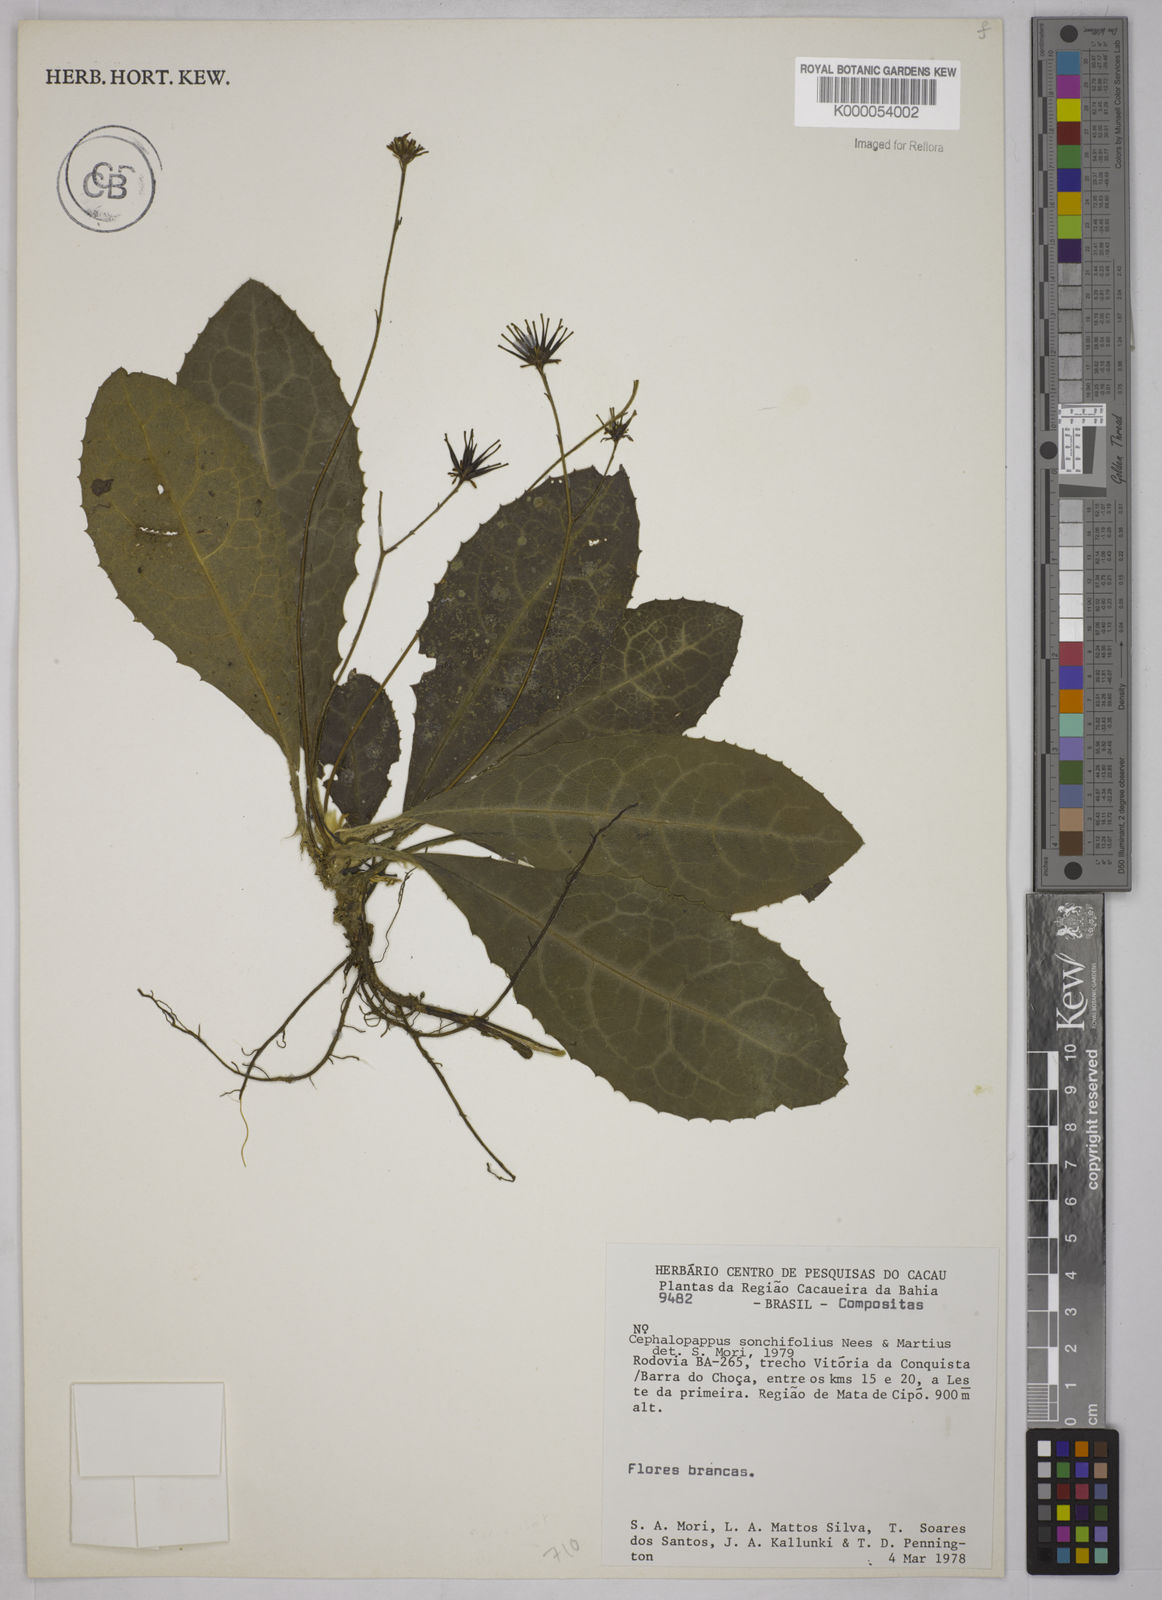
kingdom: Plantae
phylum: Tracheophyta
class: Magnoliopsida
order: Asterales
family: Asteraceae
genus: Cephalopappus
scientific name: Cephalopappus sonchifolius
